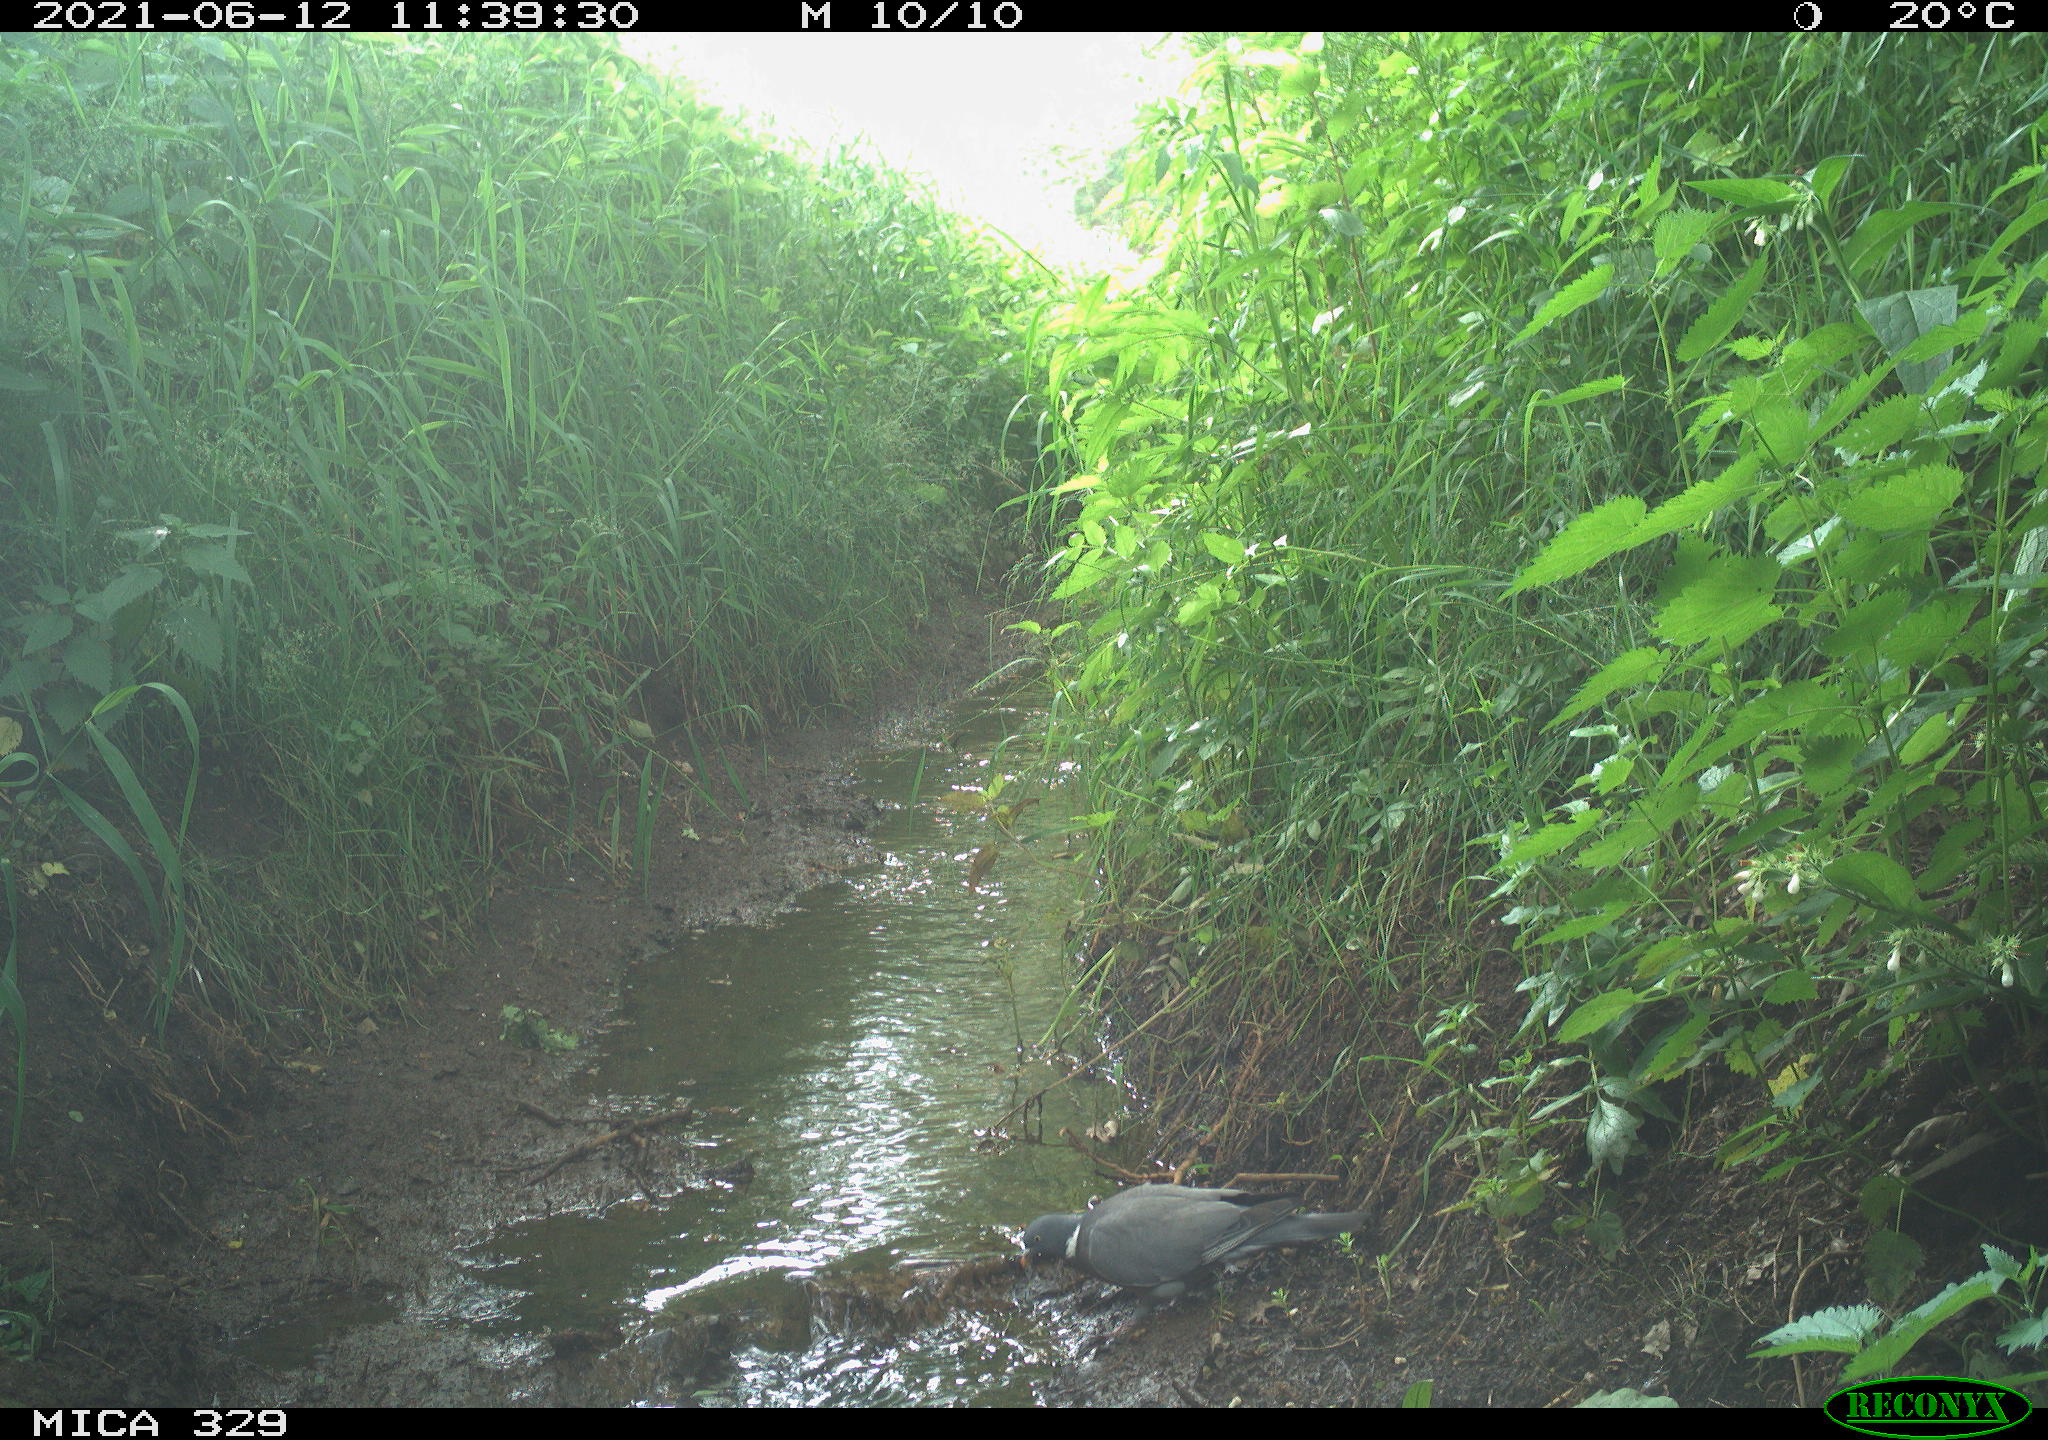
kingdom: Animalia
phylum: Chordata
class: Aves
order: Columbiformes
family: Columbidae
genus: Columba
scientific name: Columba palumbus
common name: Common wood pigeon
